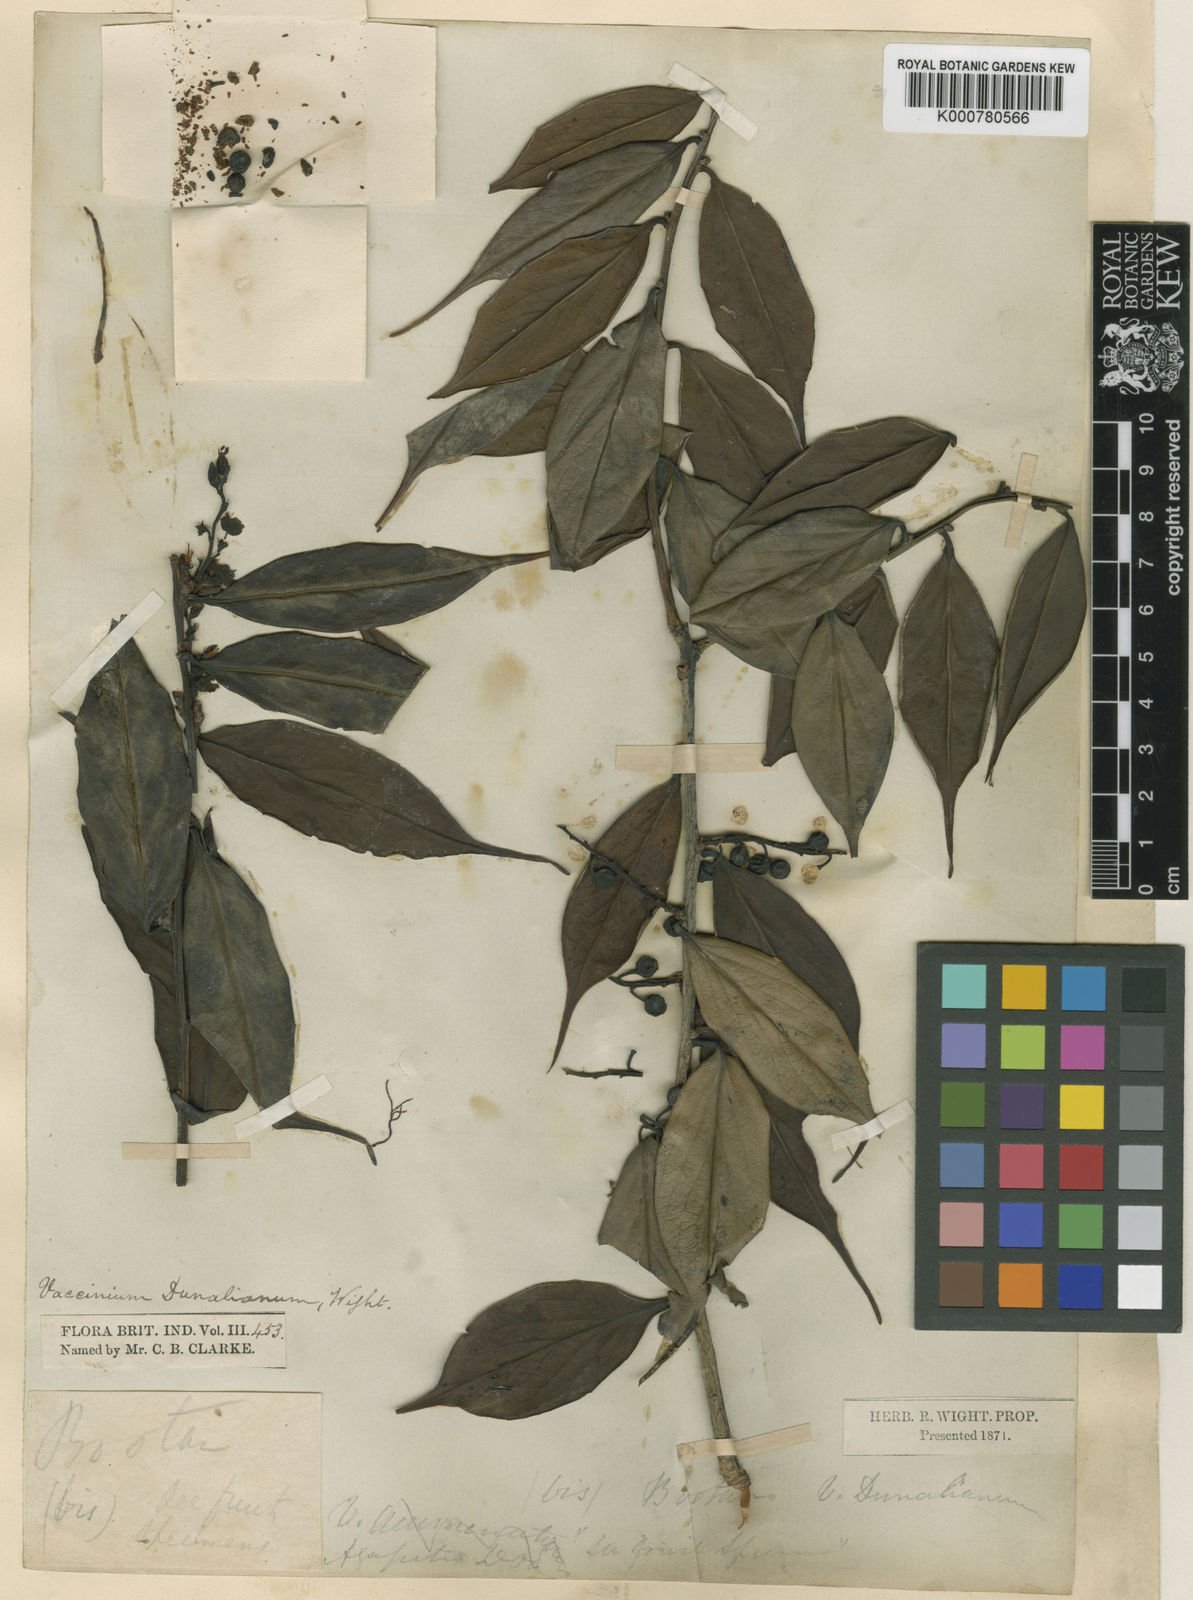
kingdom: Plantae
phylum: Tracheophyta
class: Magnoliopsida
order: Ericales
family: Ericaceae
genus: Vaccinium
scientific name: Vaccinium dunalianum
